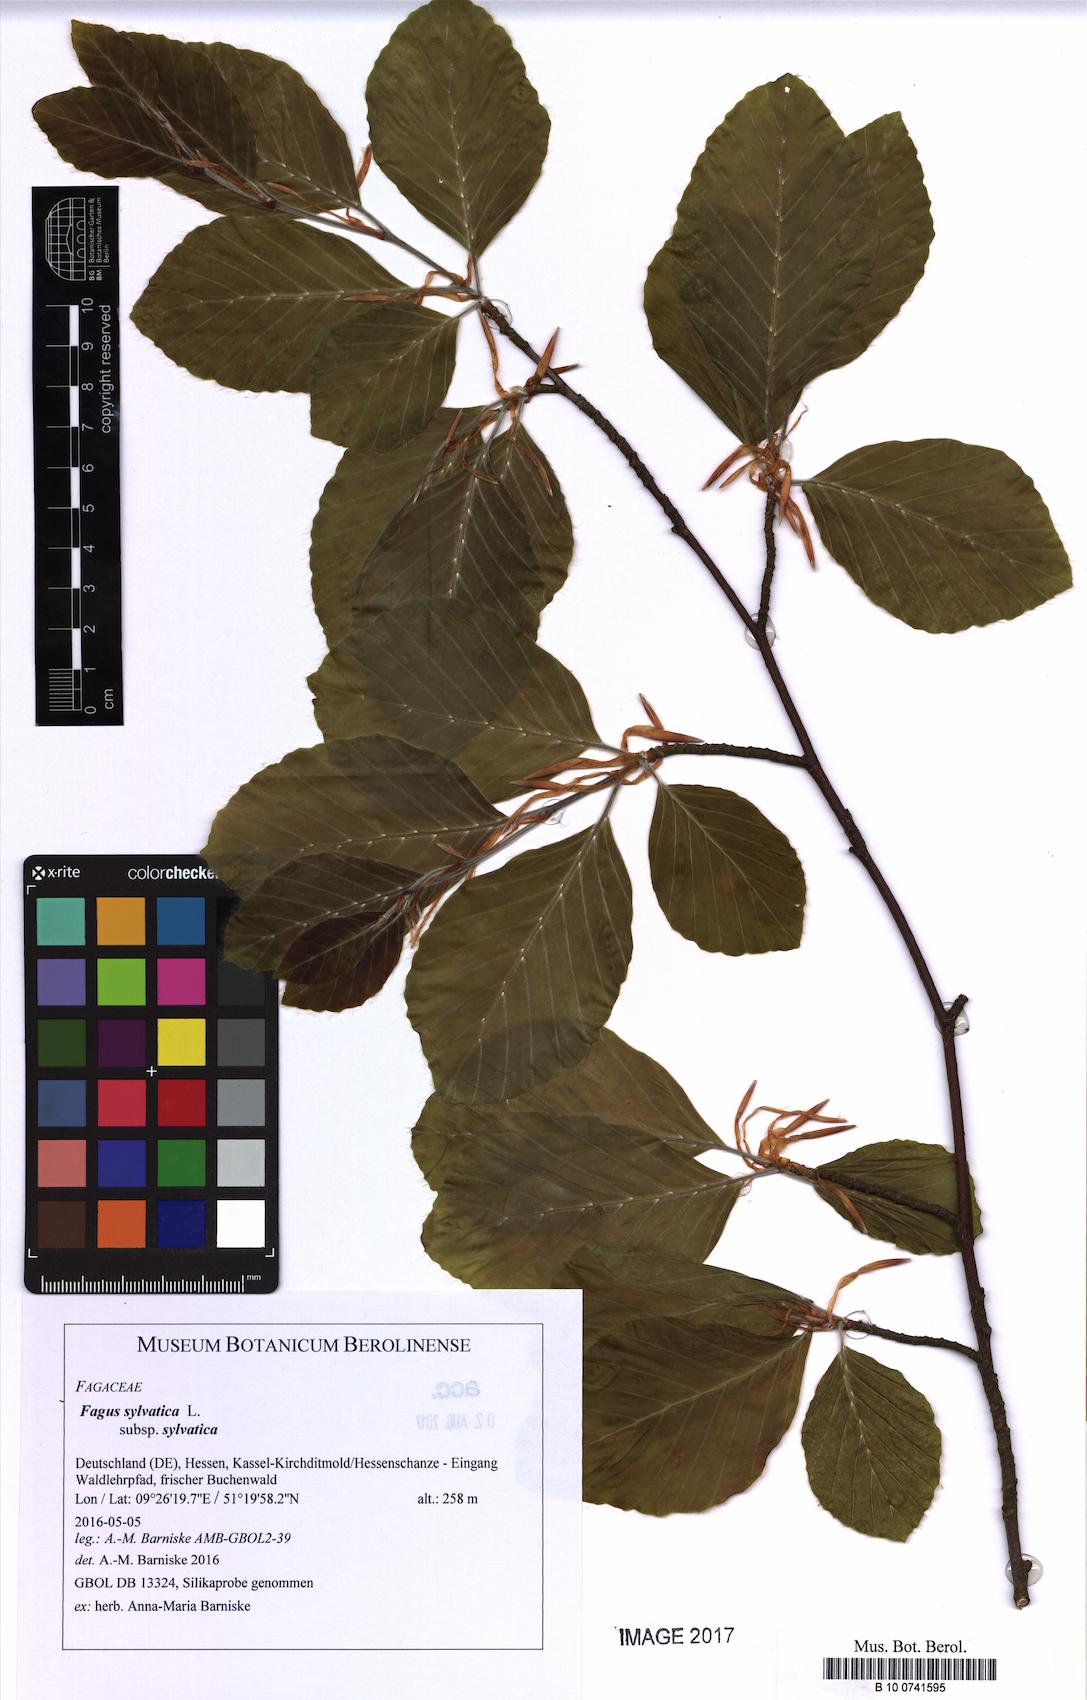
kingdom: Plantae
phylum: Tracheophyta
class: Magnoliopsida
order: Fagales
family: Fagaceae
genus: Fagus
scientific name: Fagus sylvatica
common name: Beech
